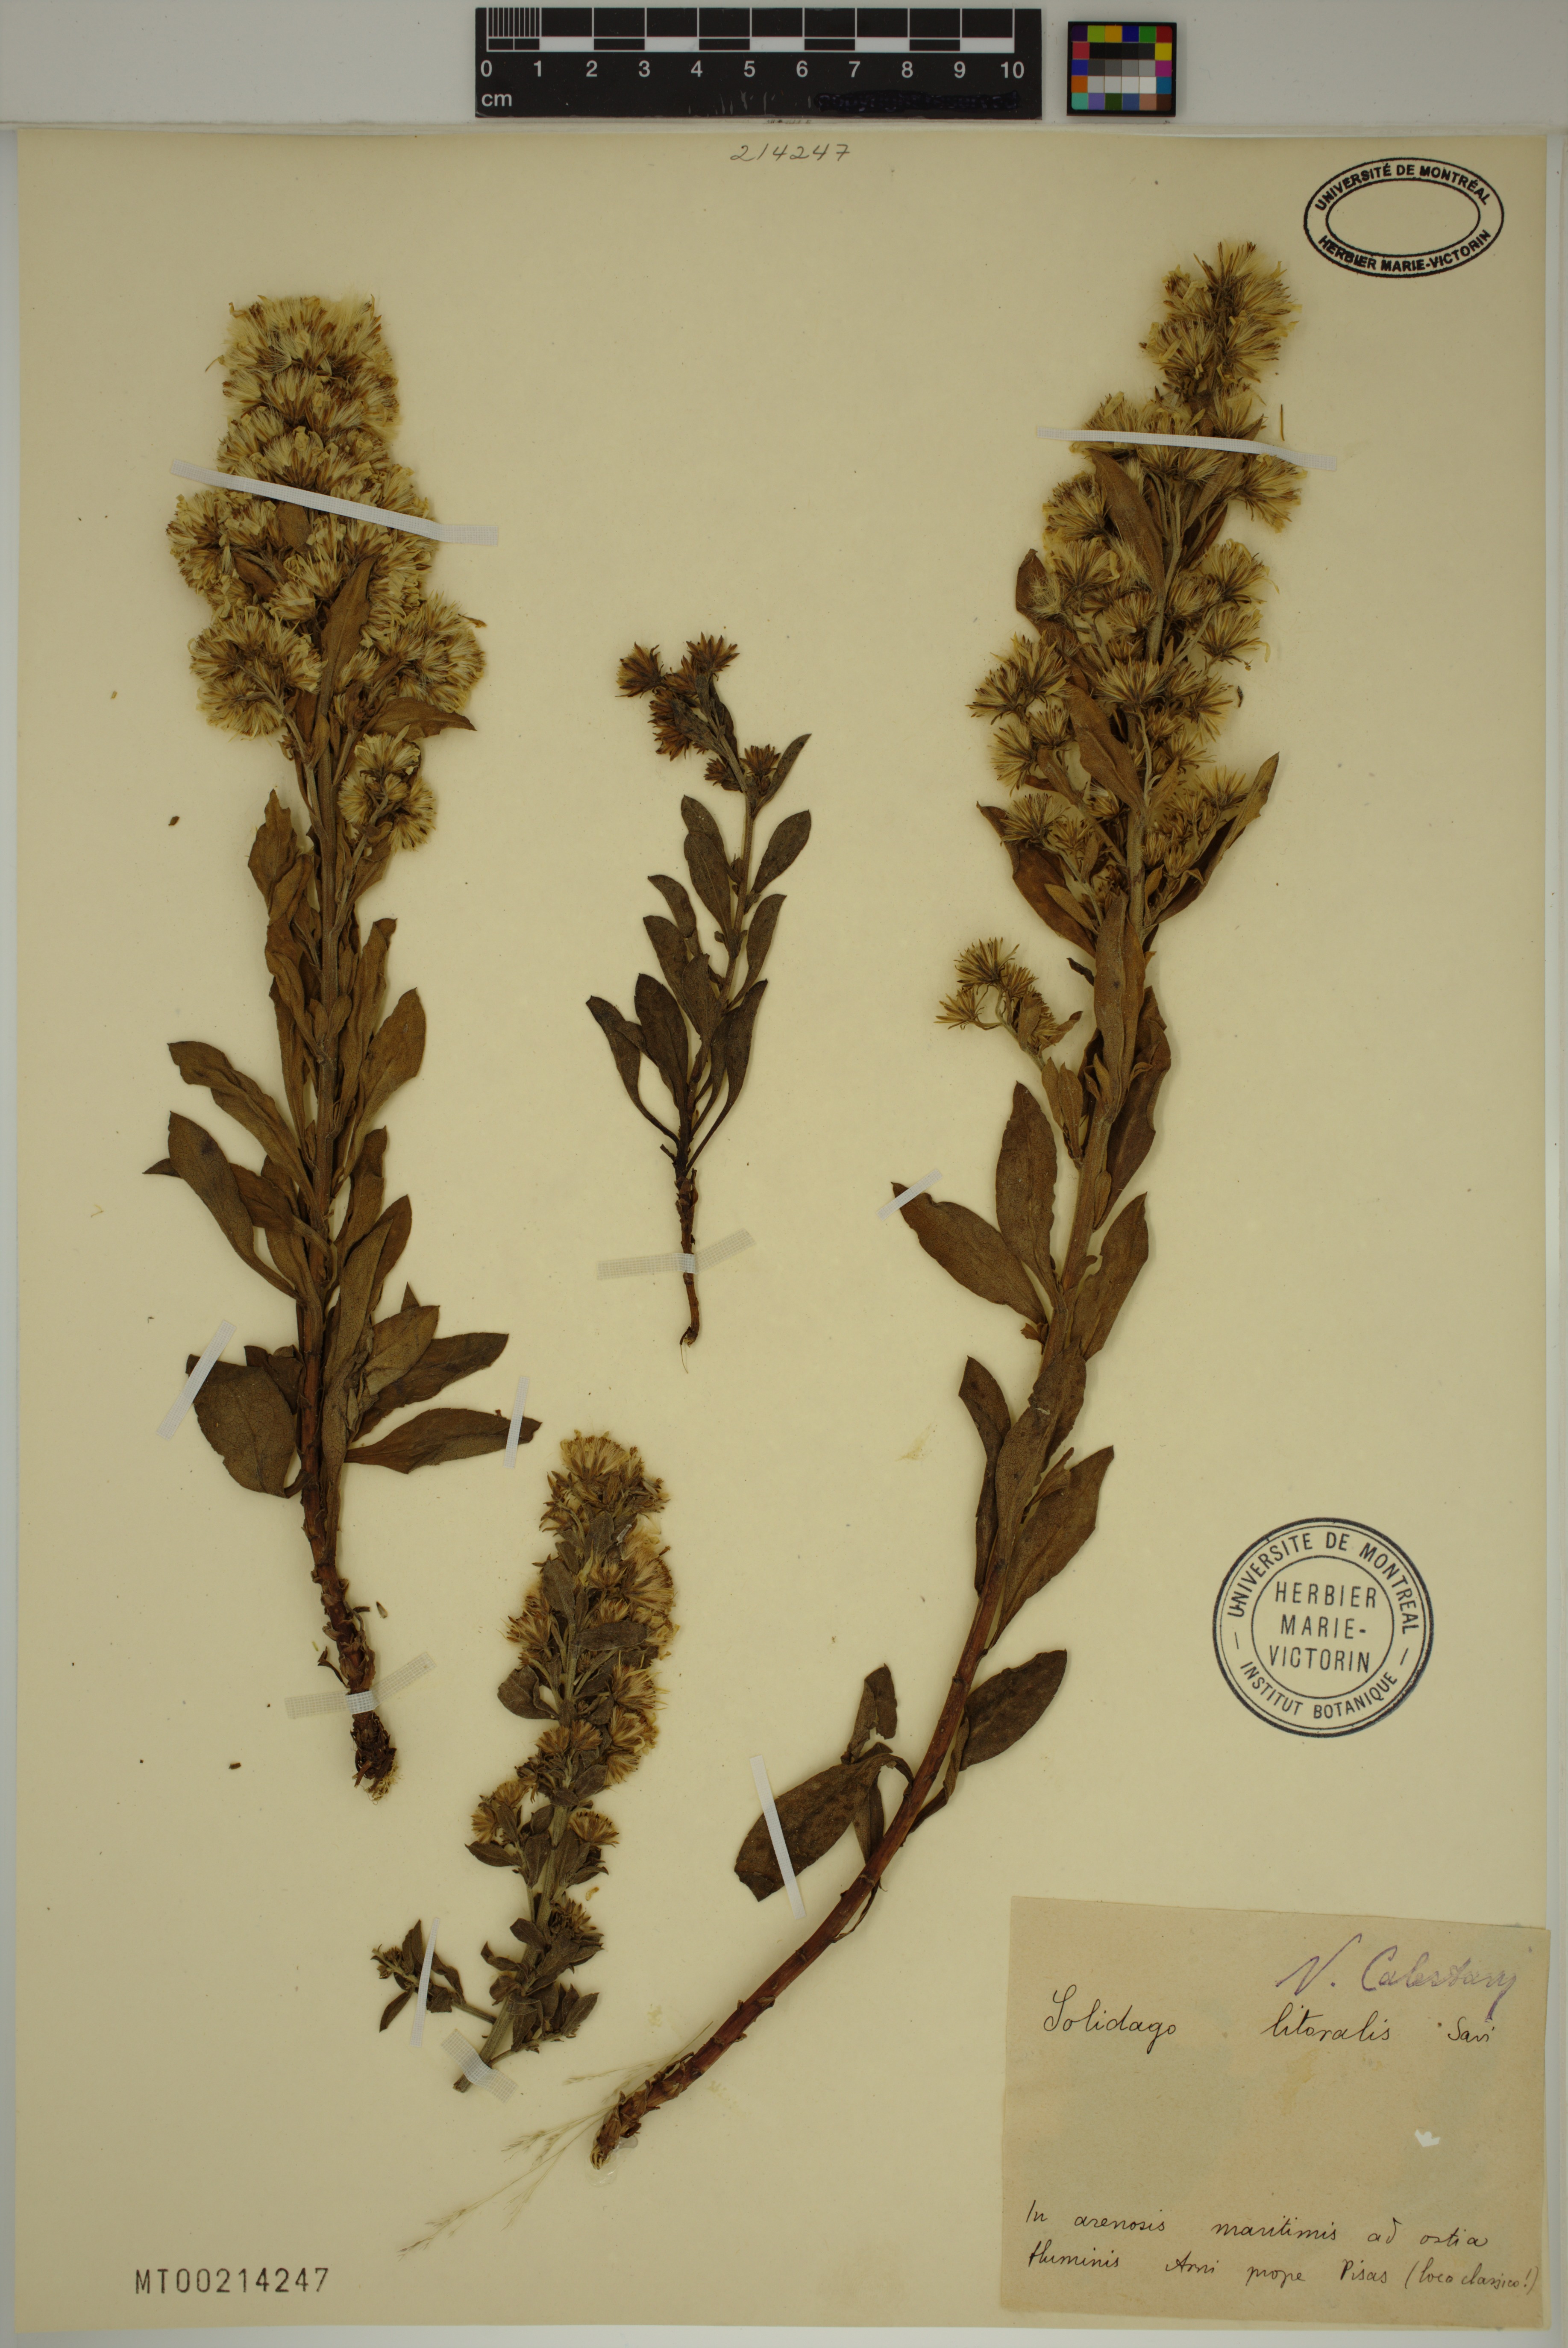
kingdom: Plantae
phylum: Tracheophyta
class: Magnoliopsida
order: Asterales
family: Asteraceae
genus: Solidago
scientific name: Solidago litoralis
